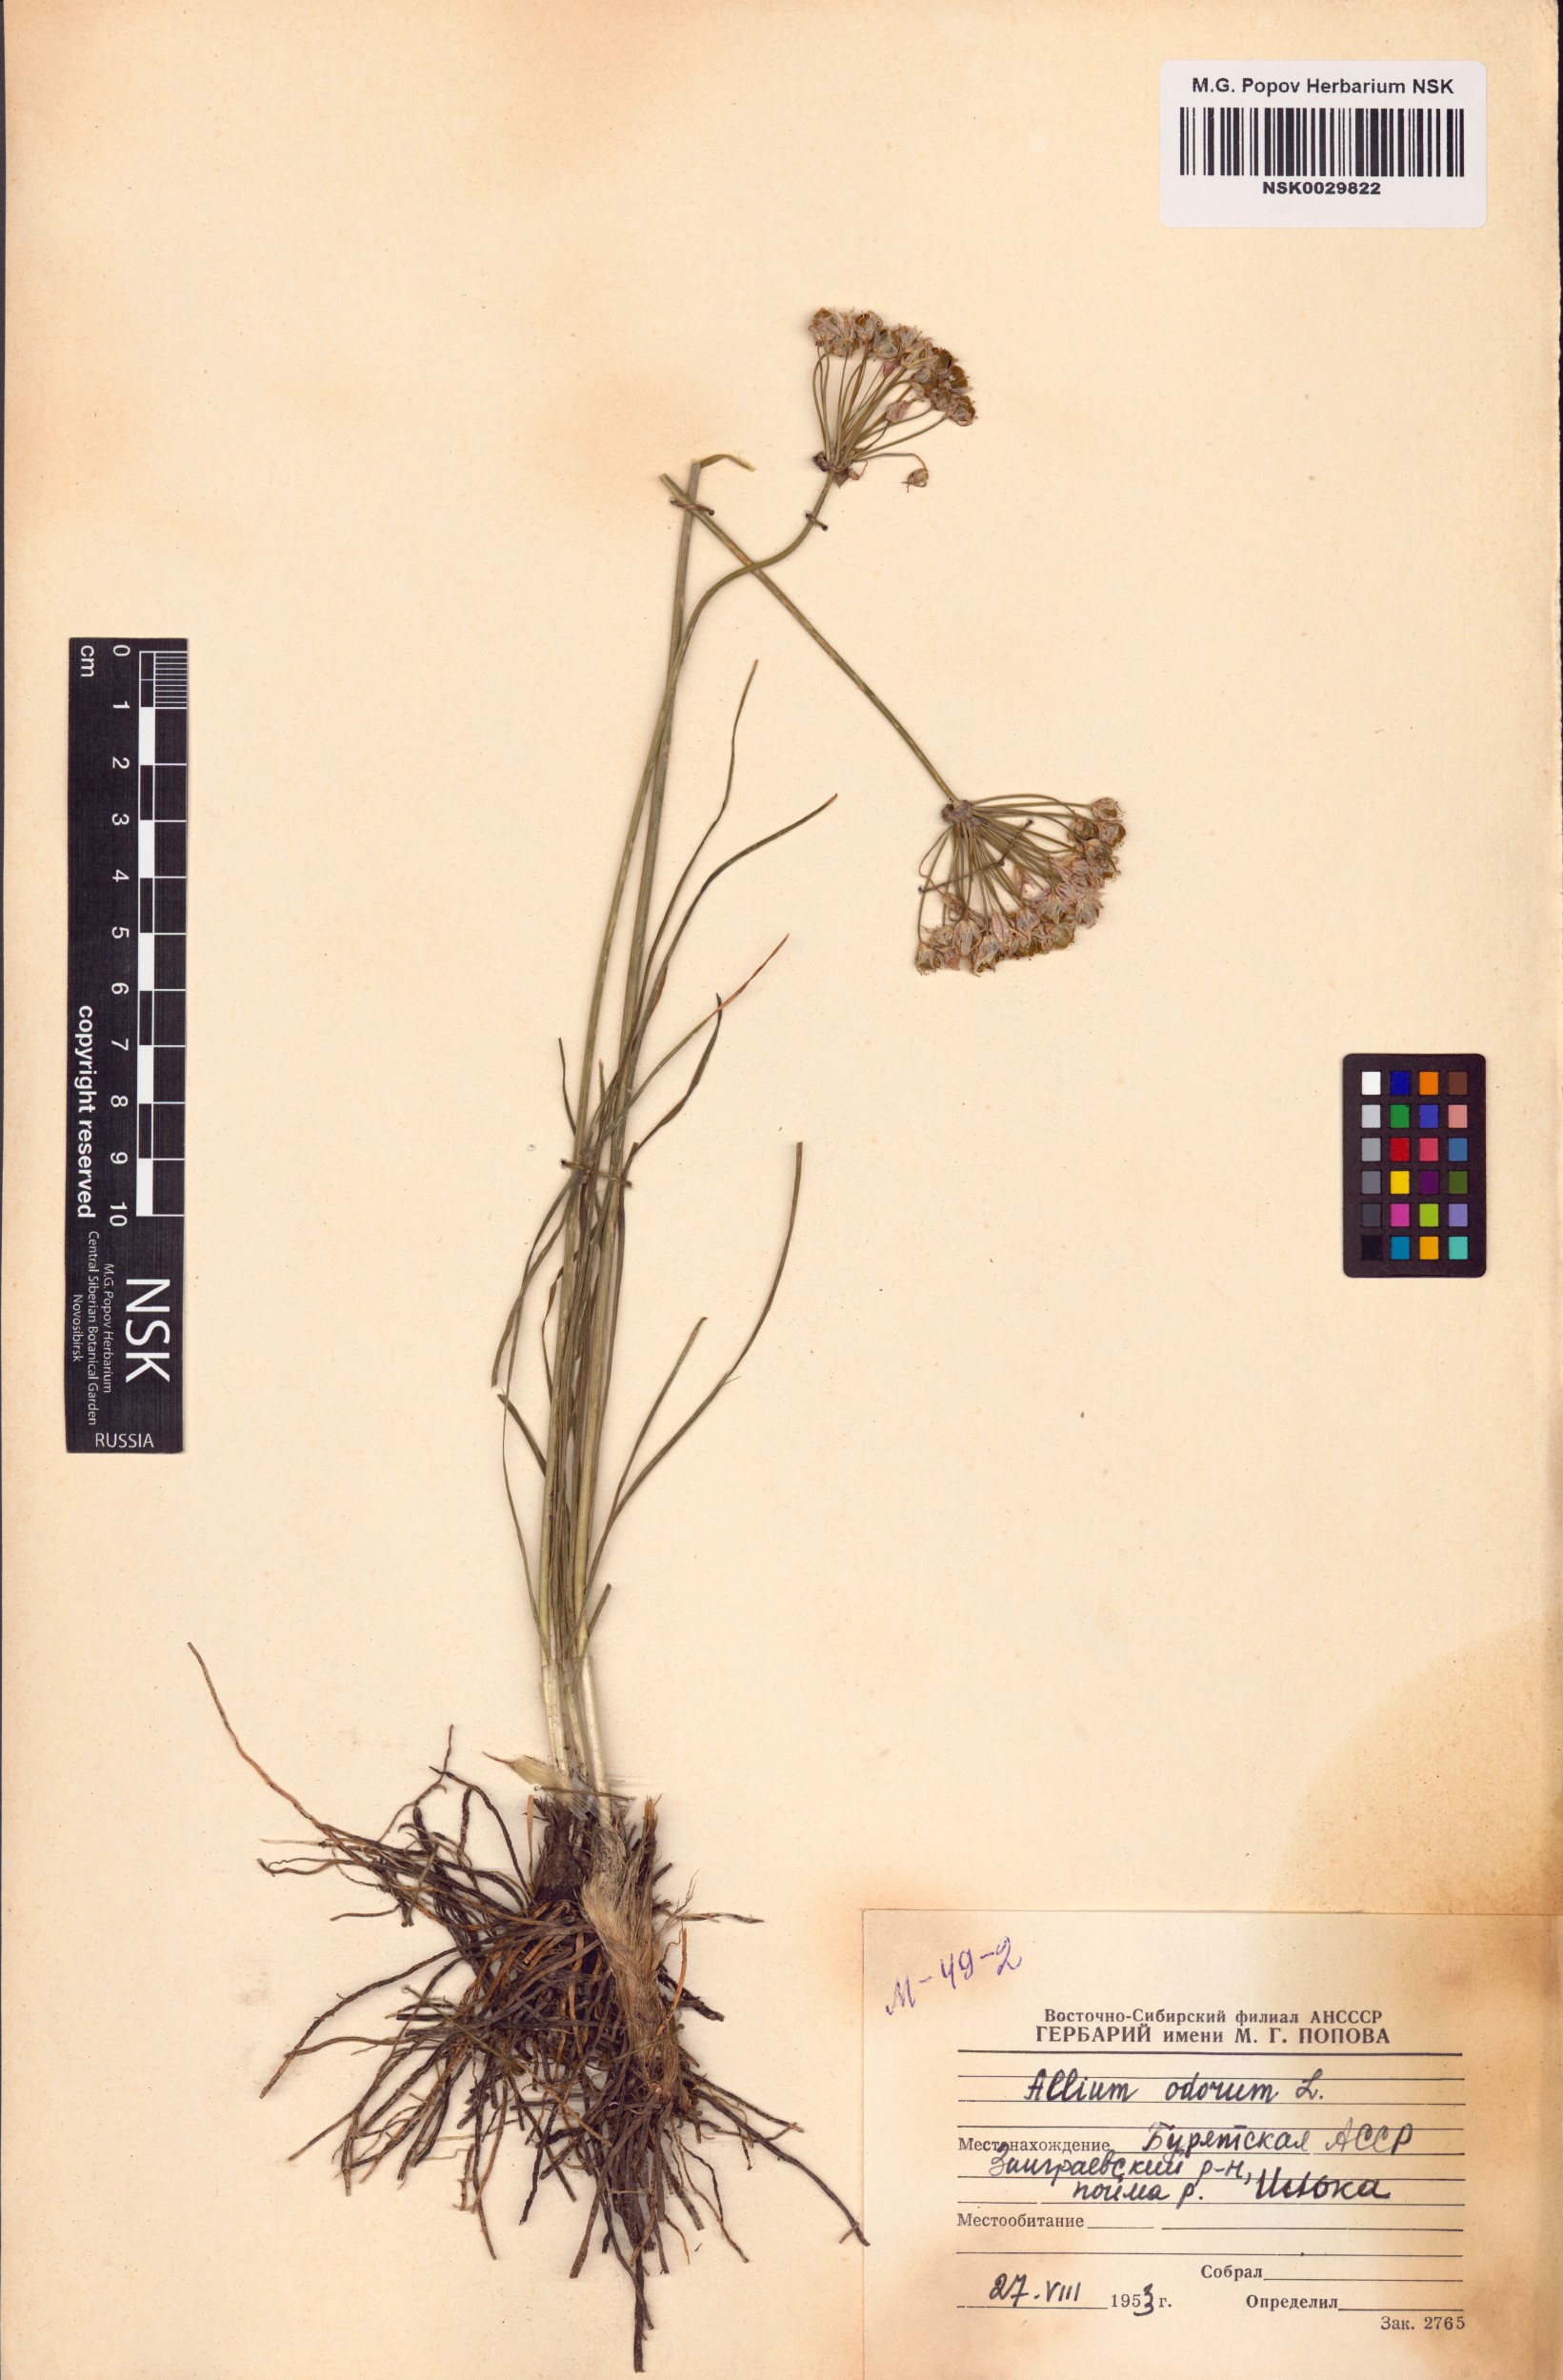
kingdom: Plantae
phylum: Tracheophyta
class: Liliopsida
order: Asparagales
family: Amaryllidaceae
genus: Allium
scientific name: Allium ramosum
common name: Fragrant garlic
